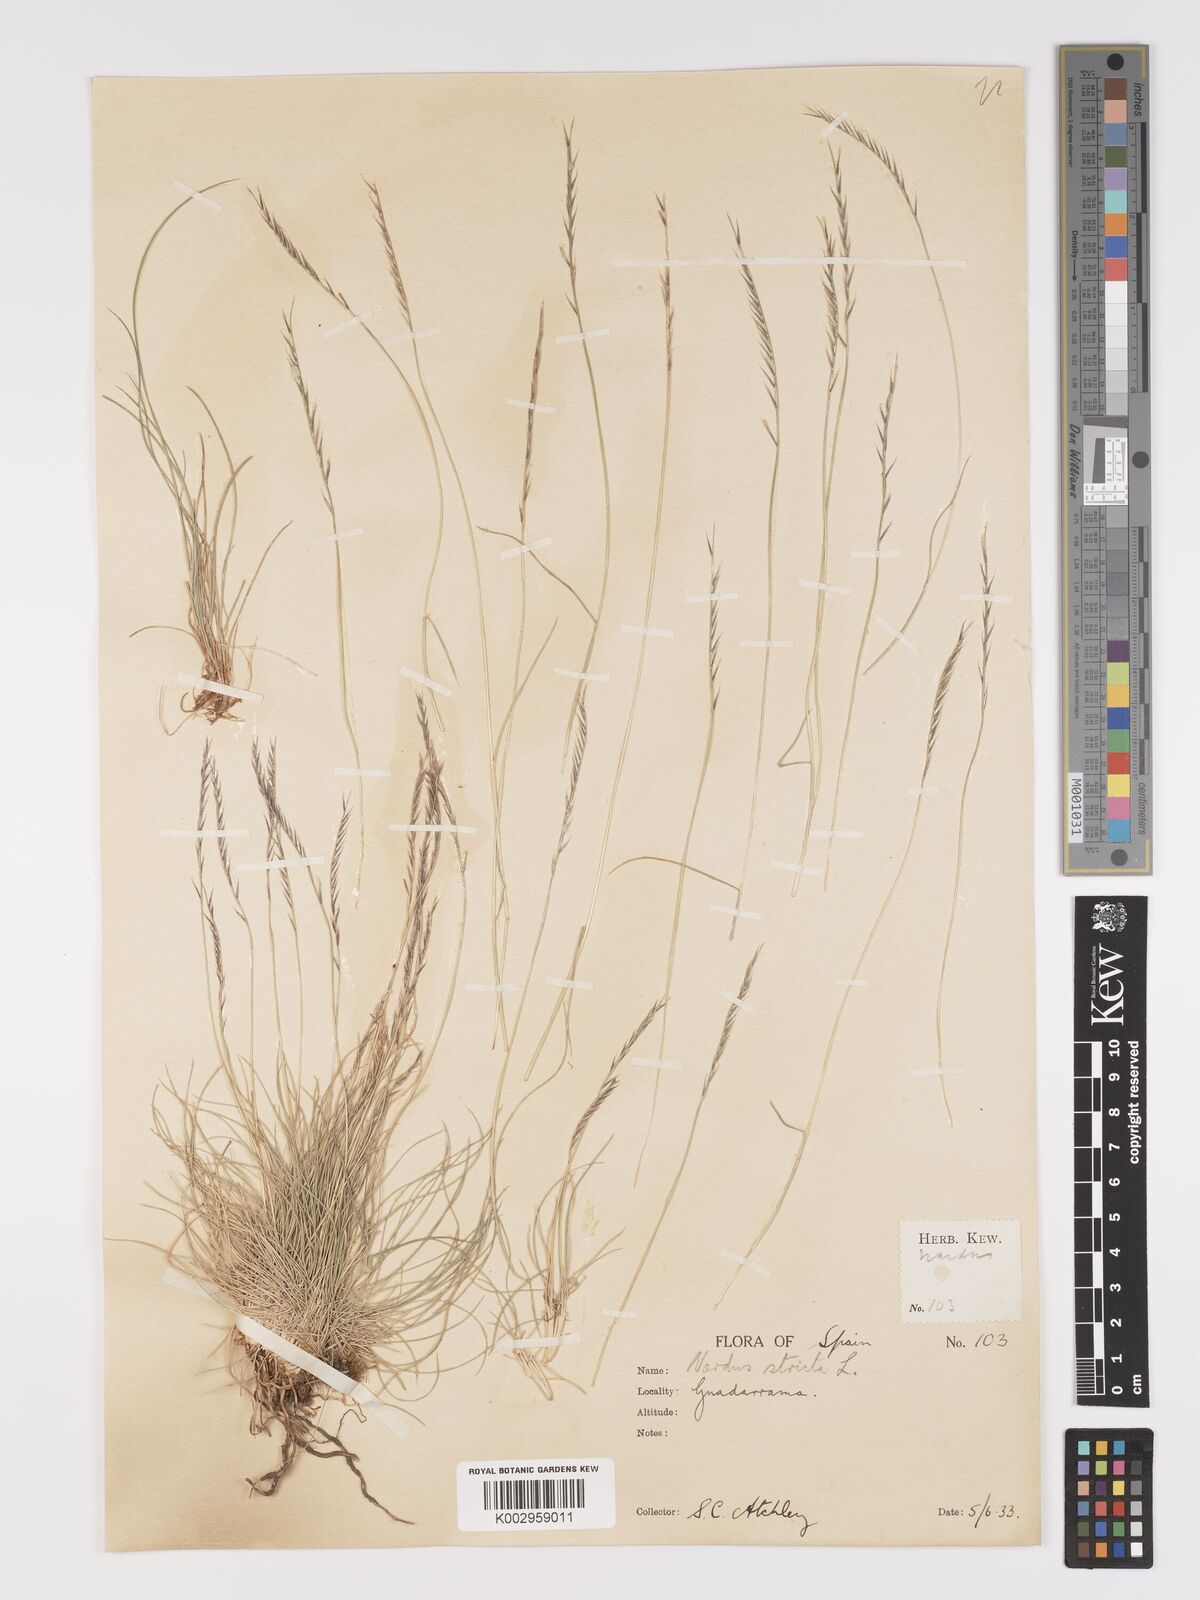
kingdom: Plantae
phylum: Tracheophyta
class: Liliopsida
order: Poales
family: Poaceae
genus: Nardus
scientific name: Nardus stricta
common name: Mat-grass
